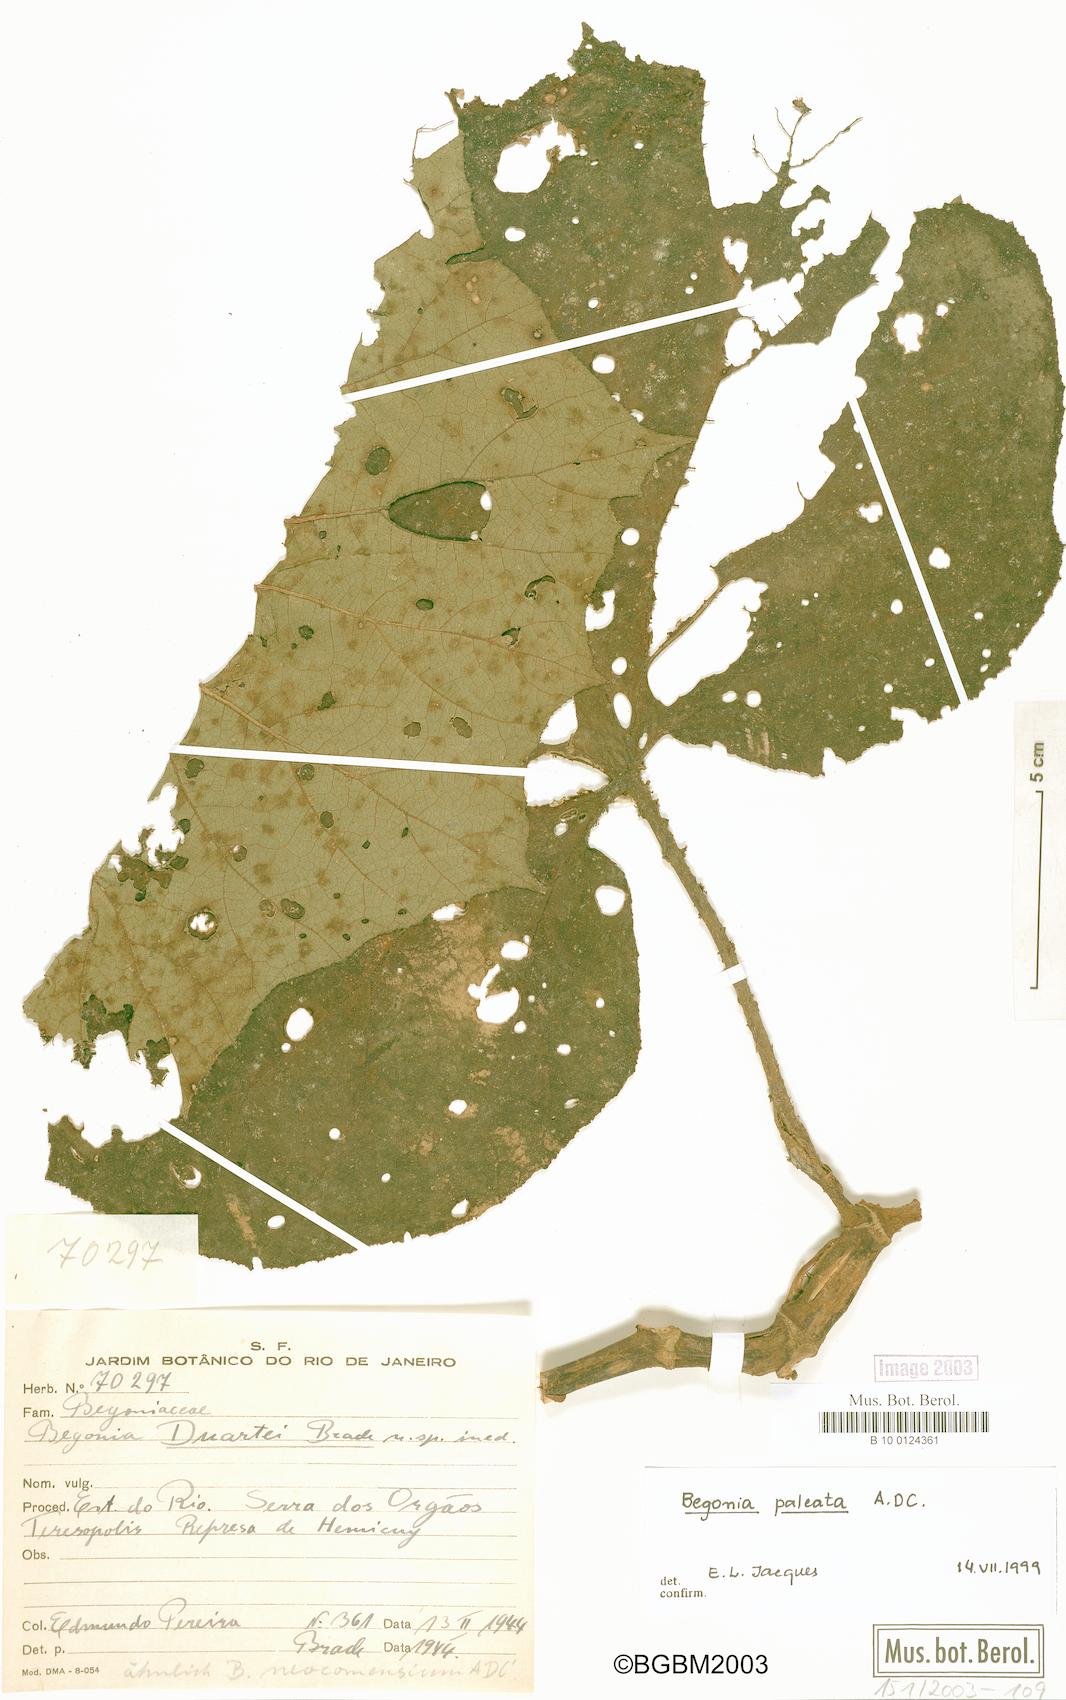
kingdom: Plantae
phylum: Tracheophyta
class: Magnoliopsida
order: Cucurbitales
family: Begoniaceae
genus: Begonia
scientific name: Begonia paleata
